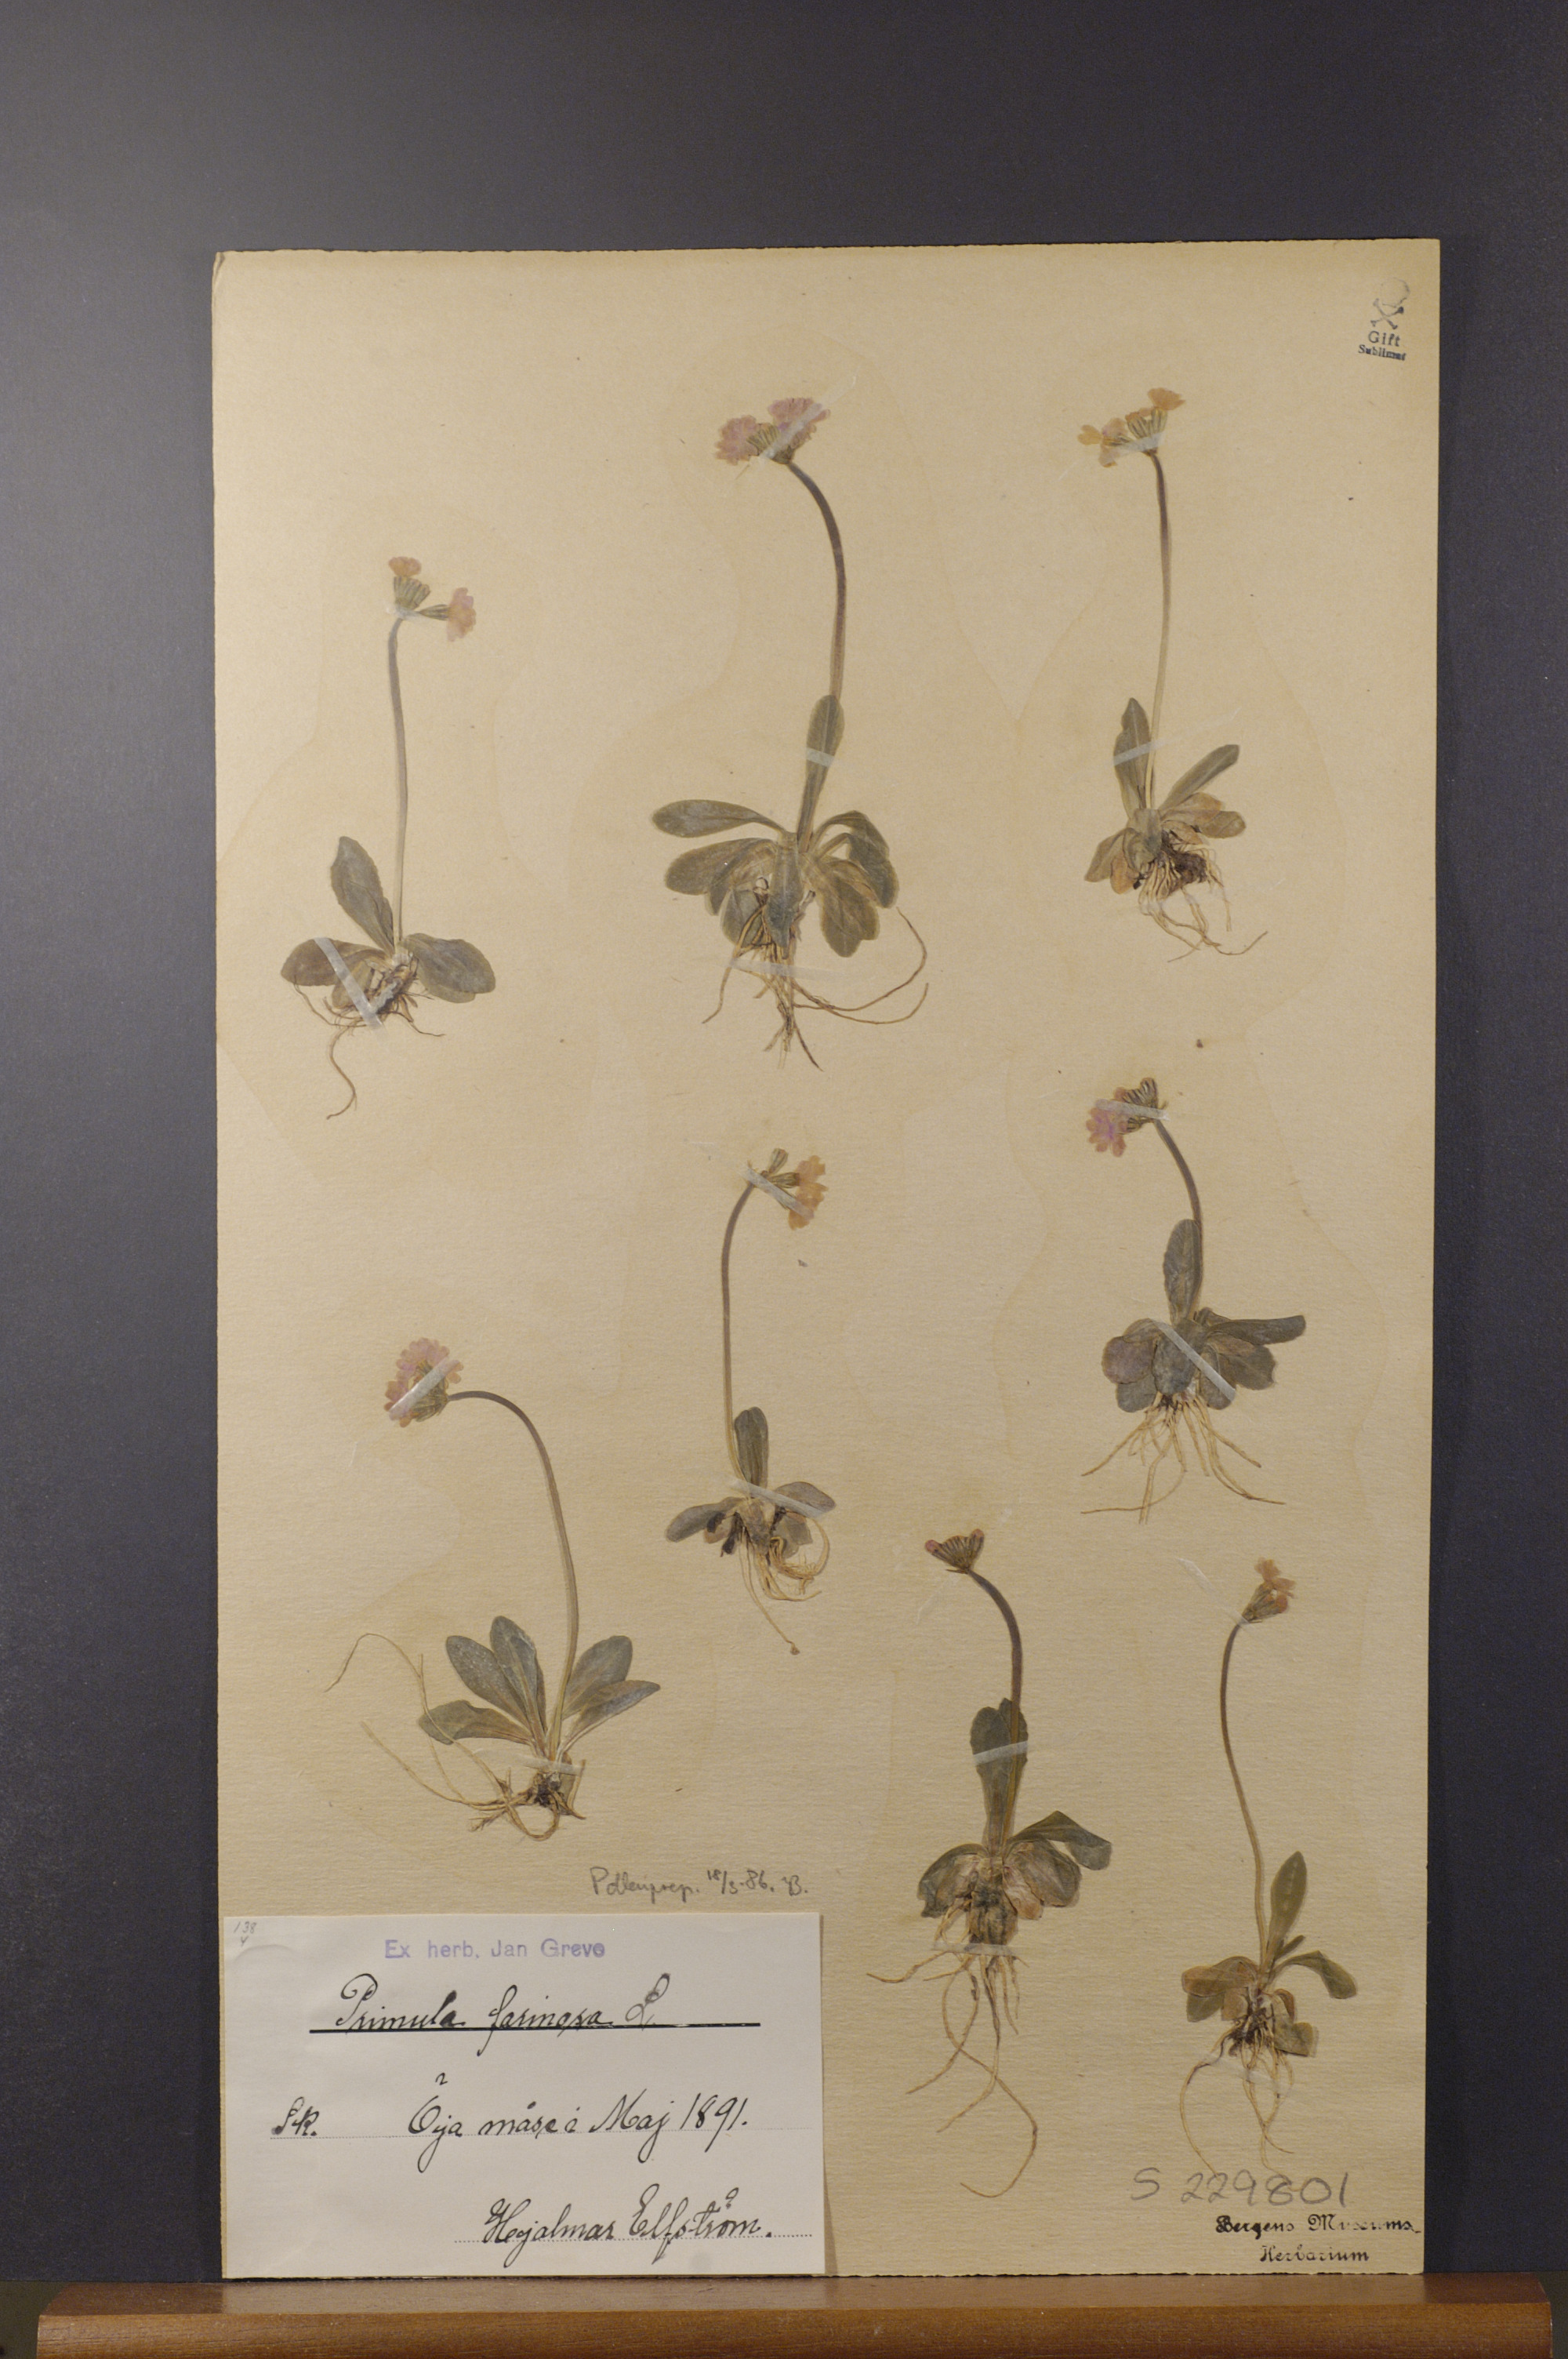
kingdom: Plantae
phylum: Tracheophyta
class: Magnoliopsida
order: Ericales
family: Primulaceae
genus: Primula
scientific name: Primula farinosa
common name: Bird's-eye primrose
